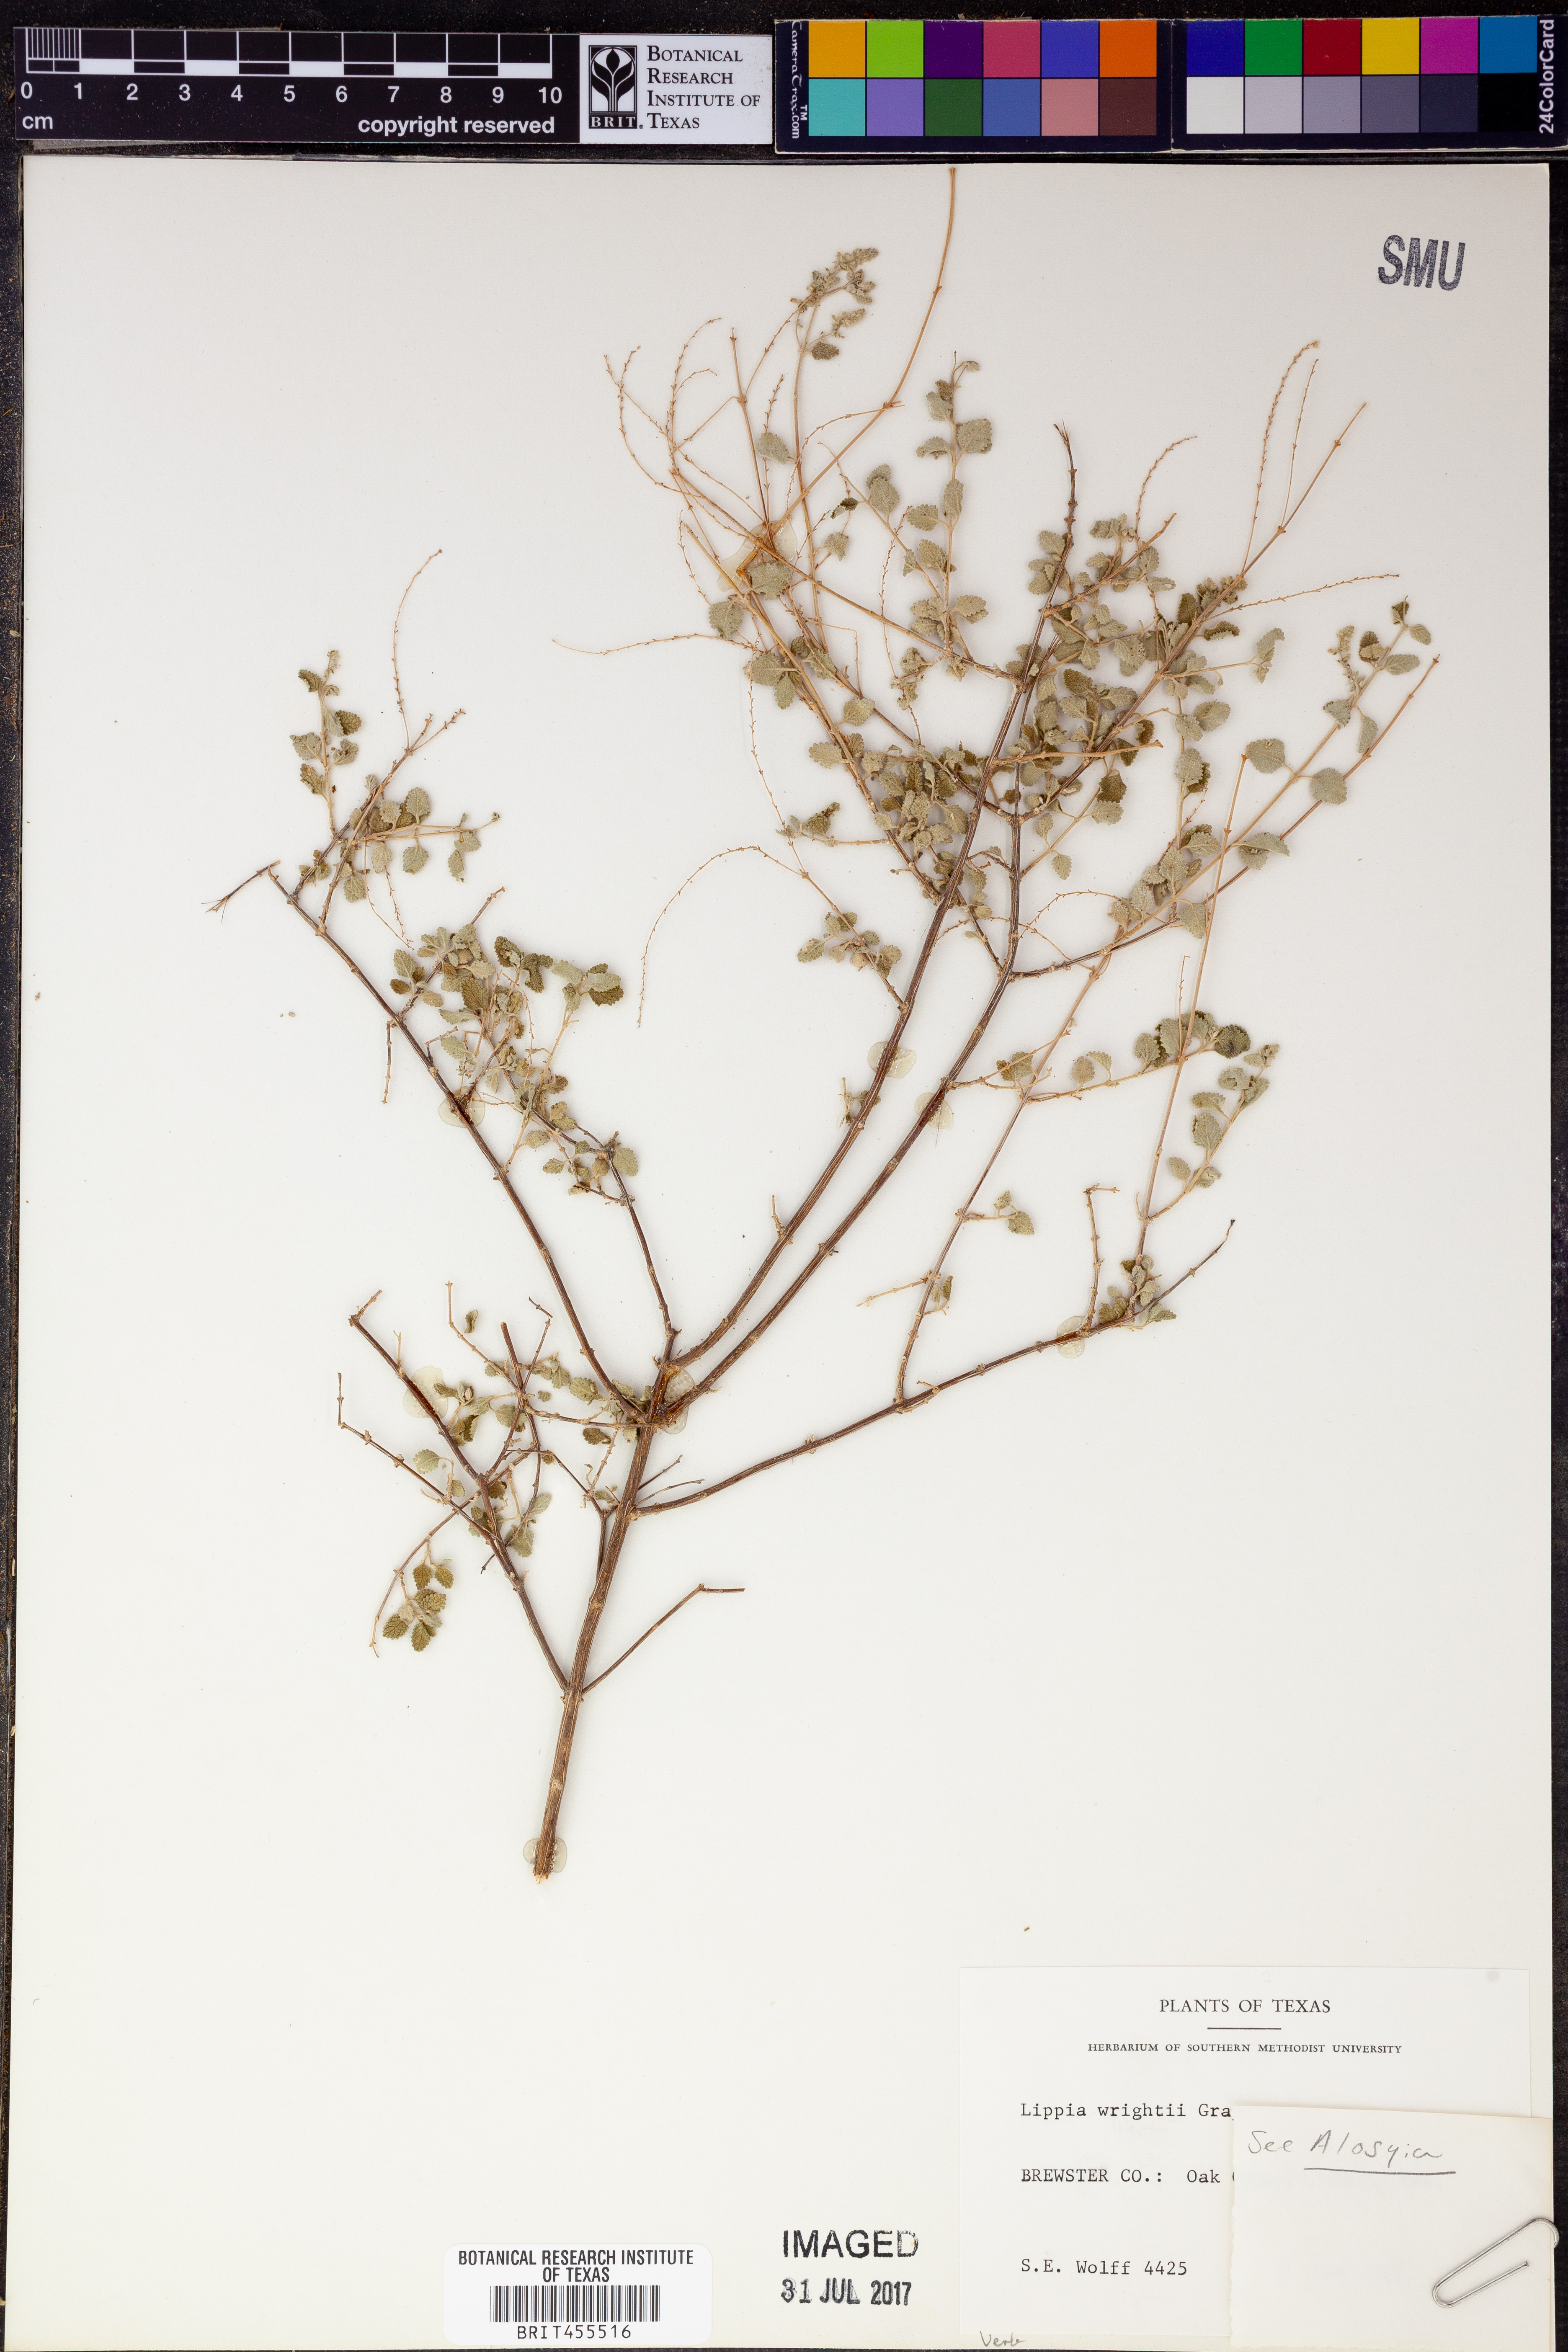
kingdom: Plantae
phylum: Tracheophyta
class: Magnoliopsida
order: Lamiales
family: Verbenaceae
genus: Aloysia
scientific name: Aloysia scorodonioides
